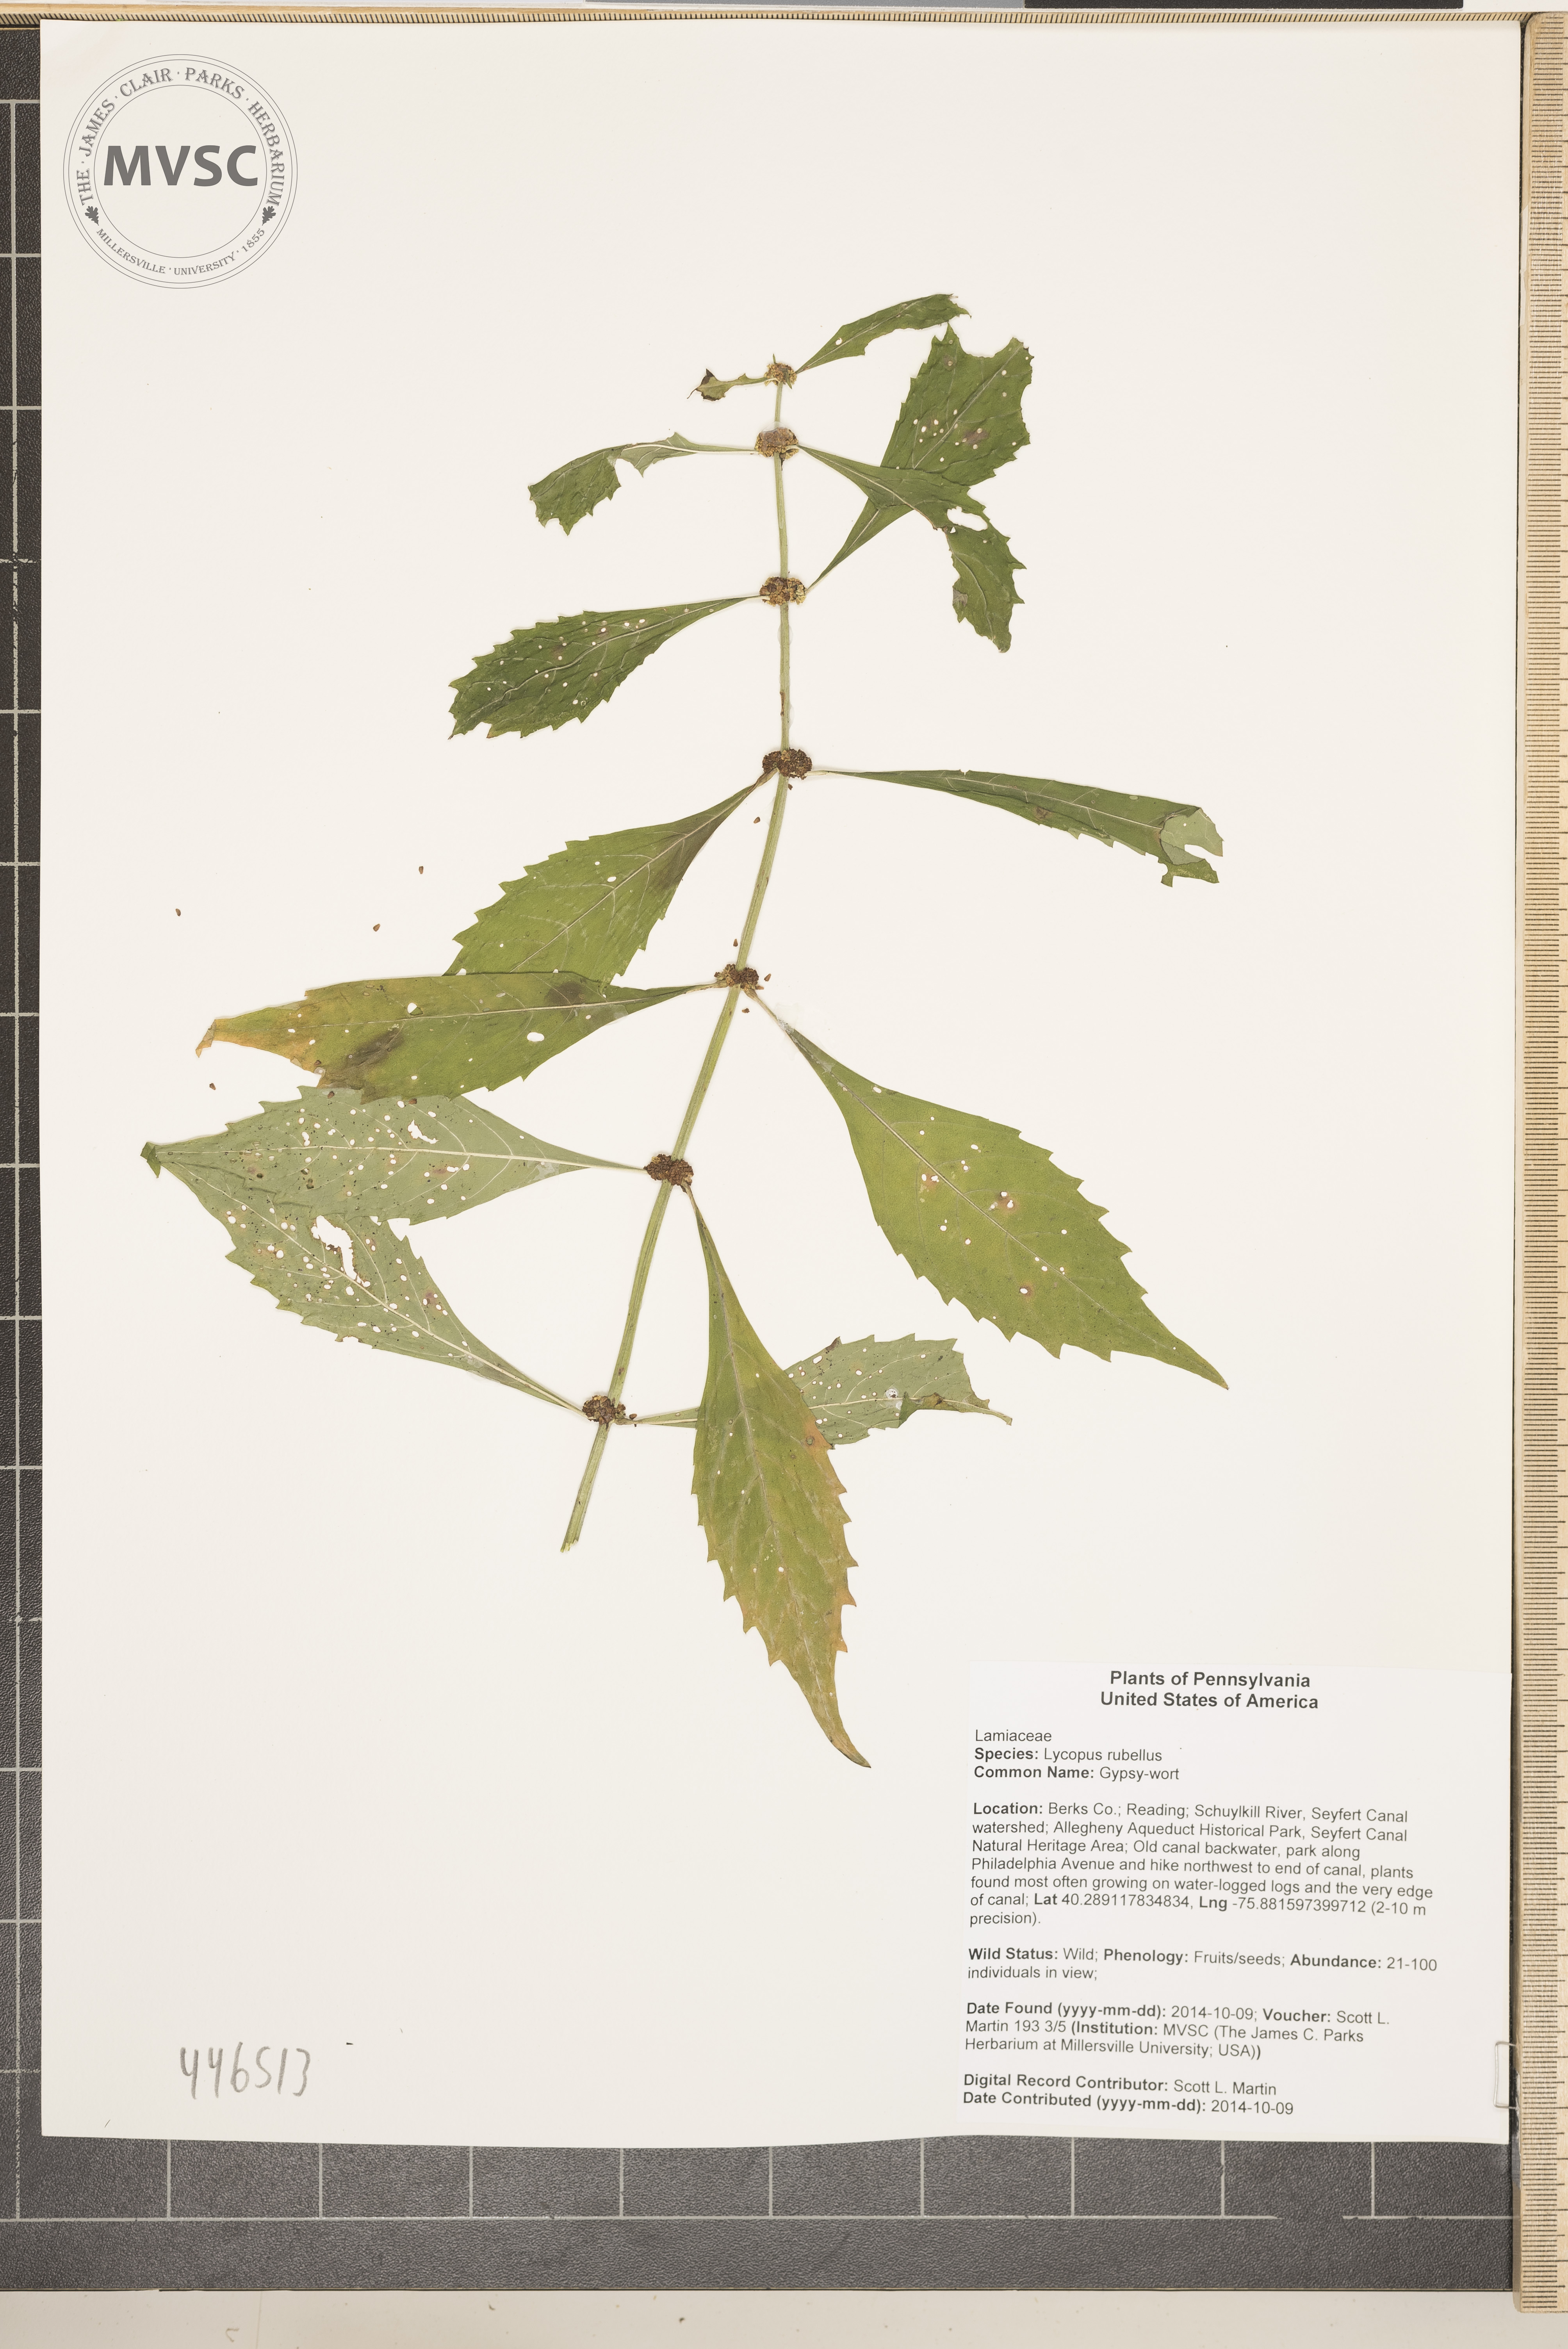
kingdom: Plantae
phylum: Tracheophyta
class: Magnoliopsida
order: Lamiales
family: Lamiaceae
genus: Lycopus
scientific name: Lycopus rubellus
